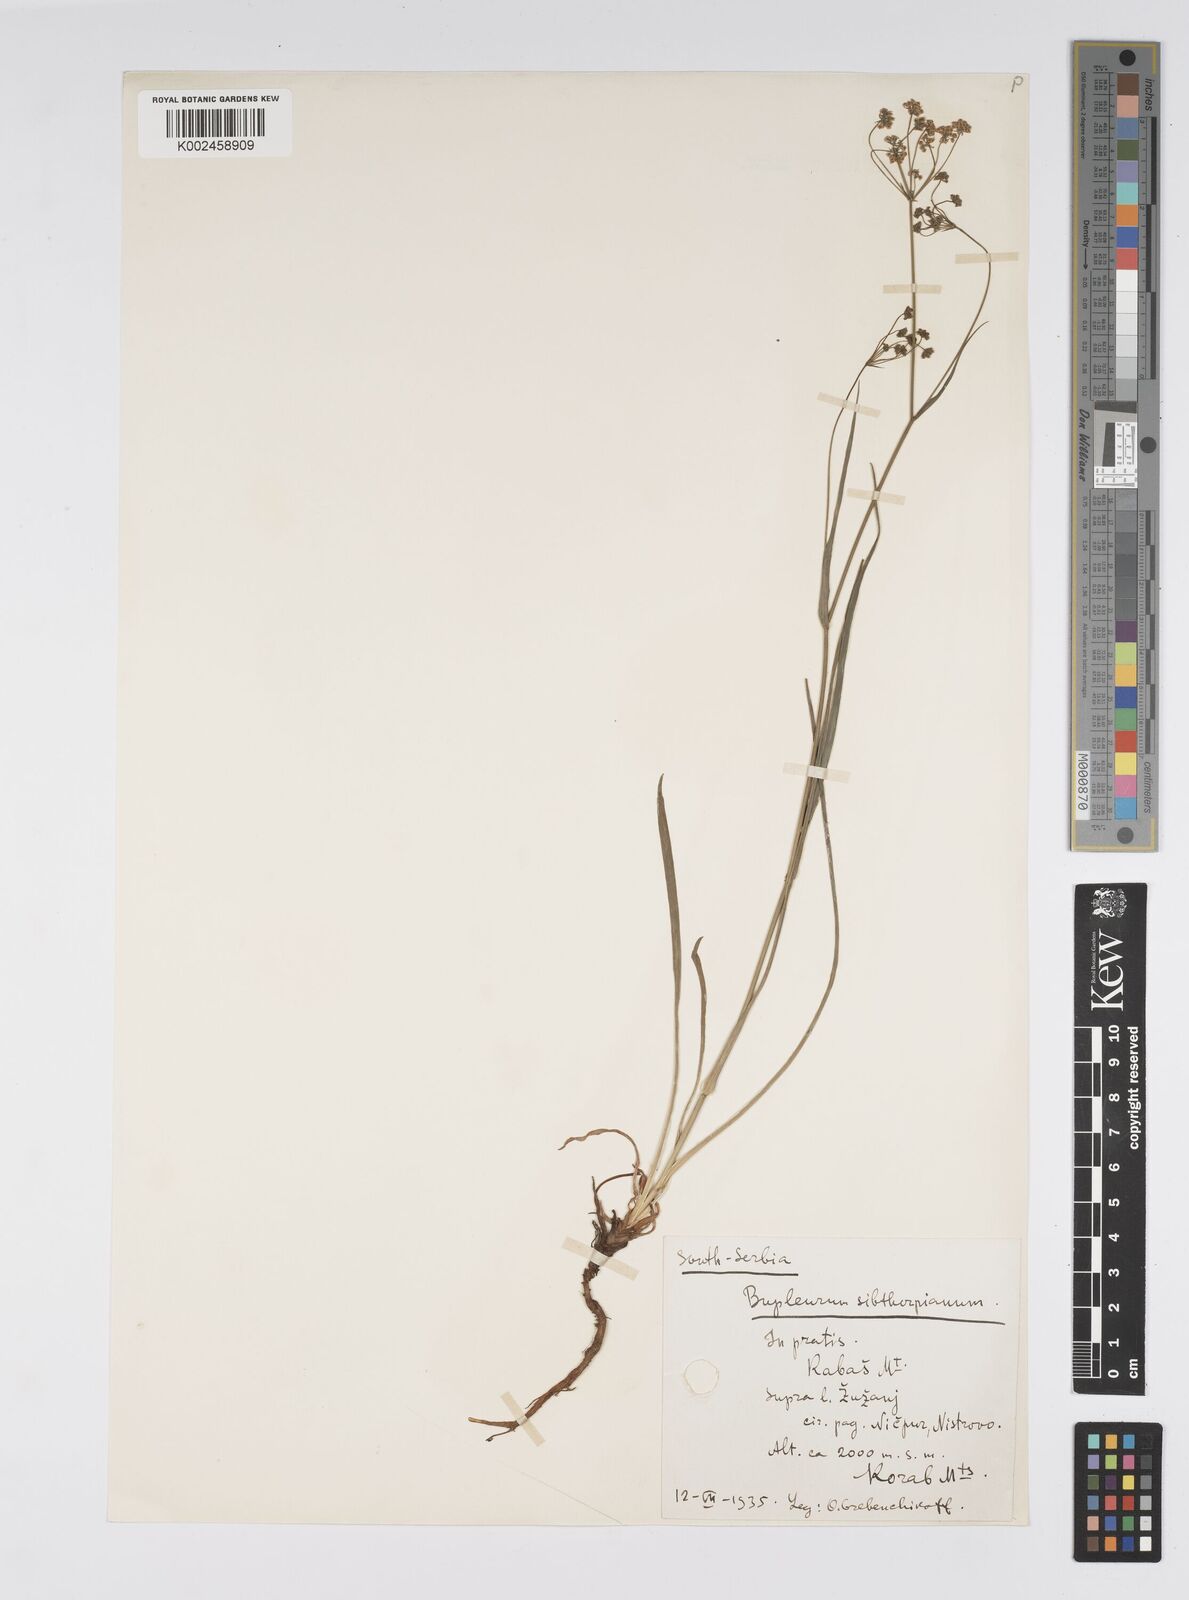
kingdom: Plantae
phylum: Tracheophyta
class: Magnoliopsida
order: Apiales
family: Apiaceae
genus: Bupleurum
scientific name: Bupleurum falcatum
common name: Sickle-leaved hare's-ear
